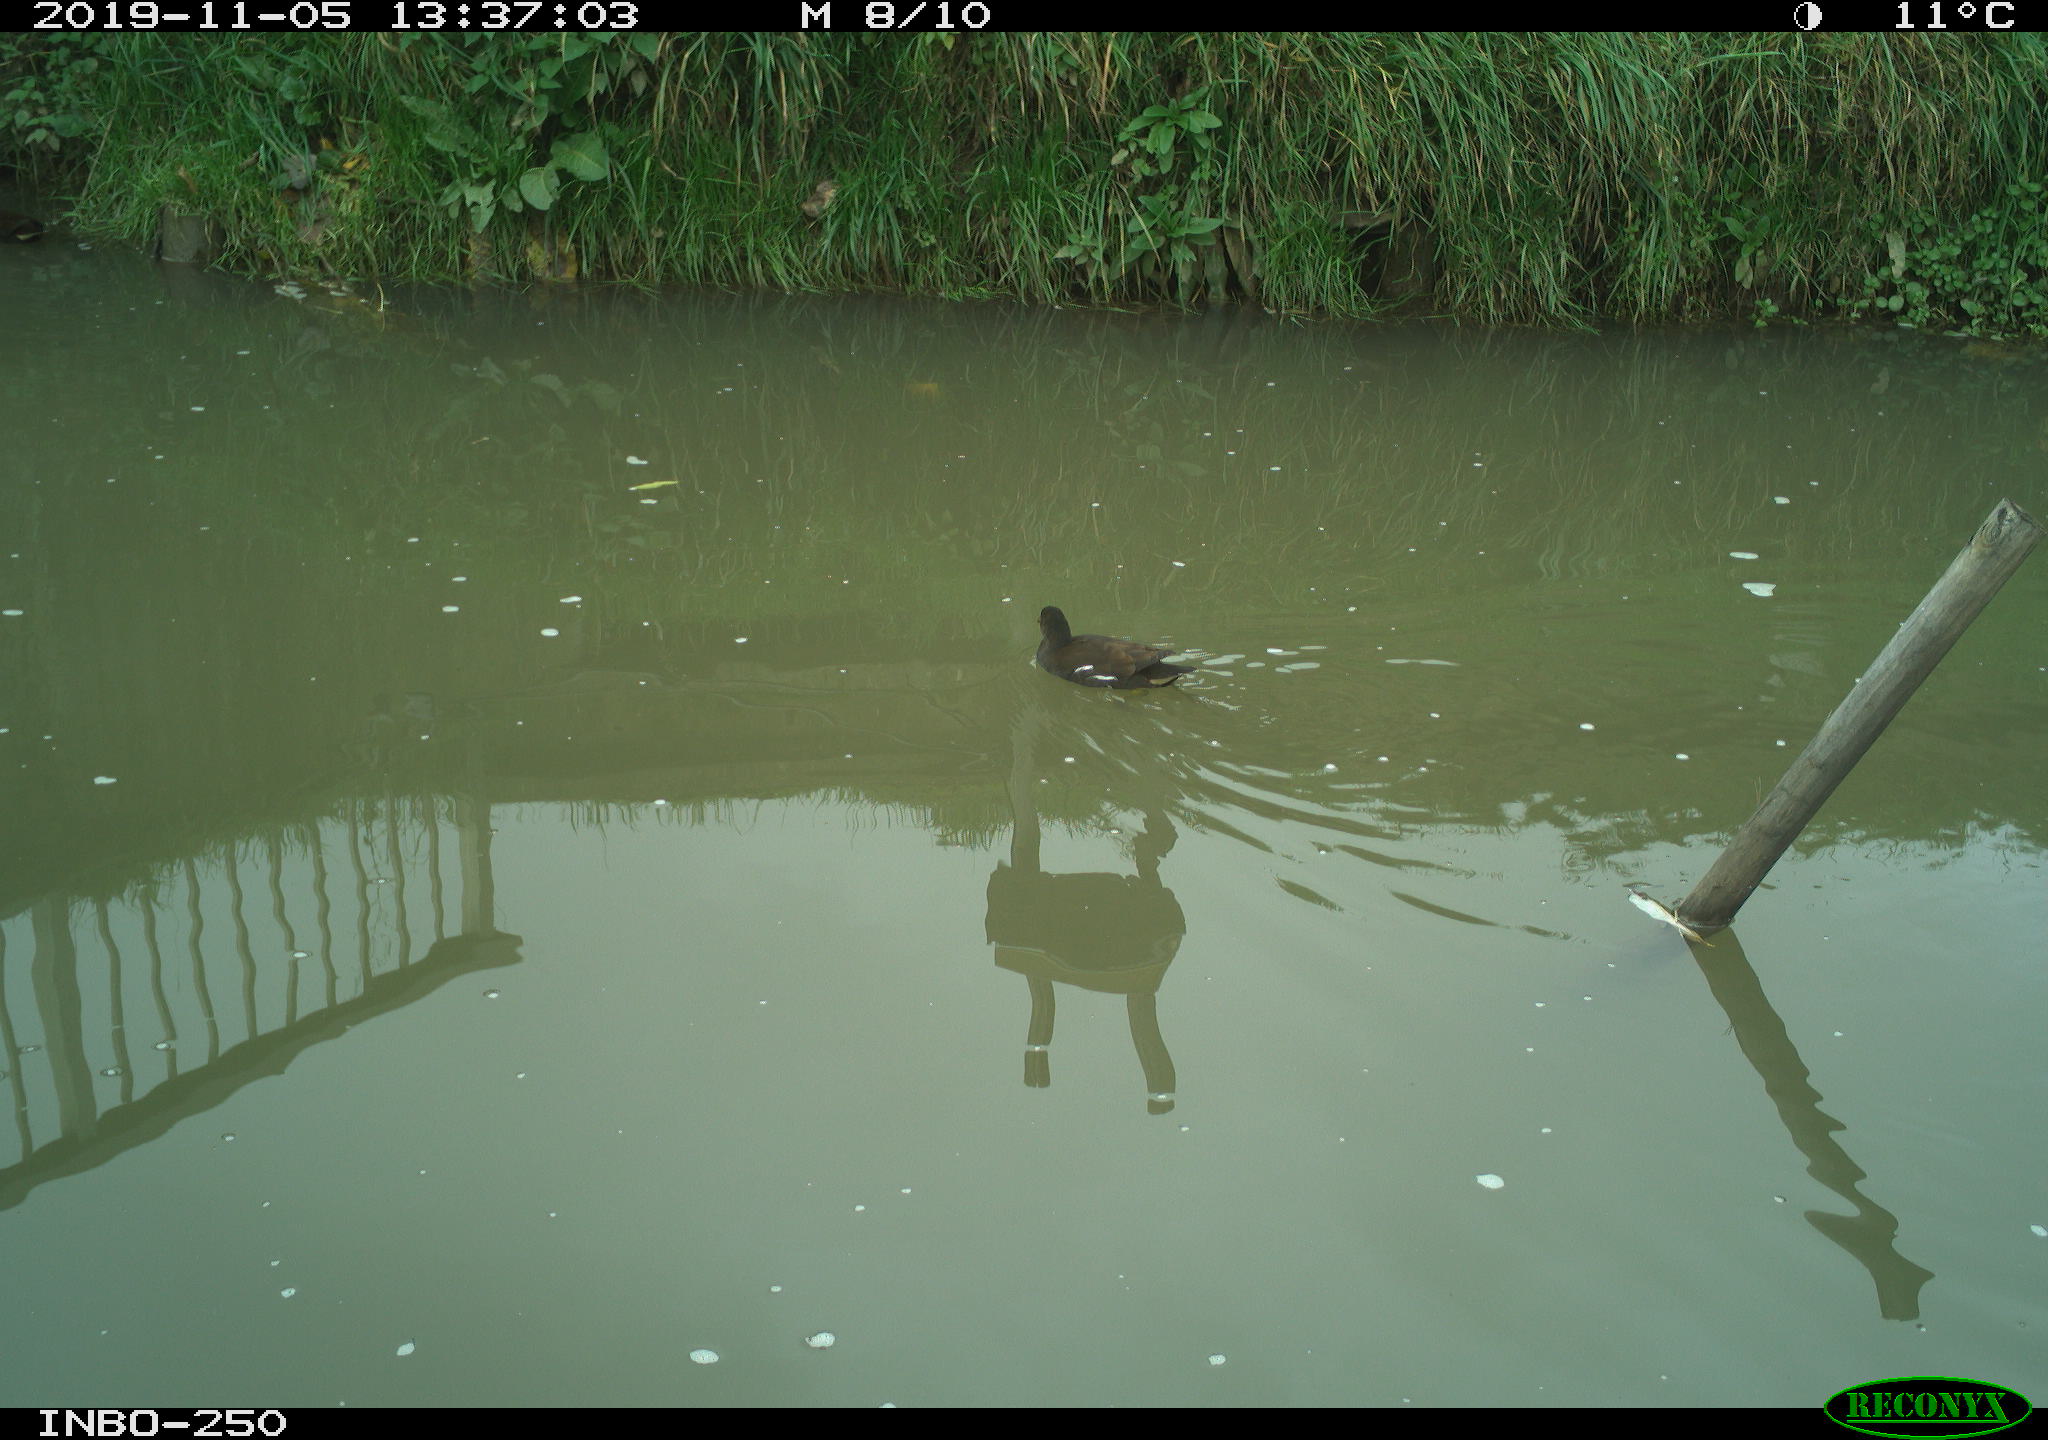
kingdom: Animalia
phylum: Chordata
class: Aves
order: Gruiformes
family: Rallidae
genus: Gallinula
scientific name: Gallinula chloropus
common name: Common moorhen
